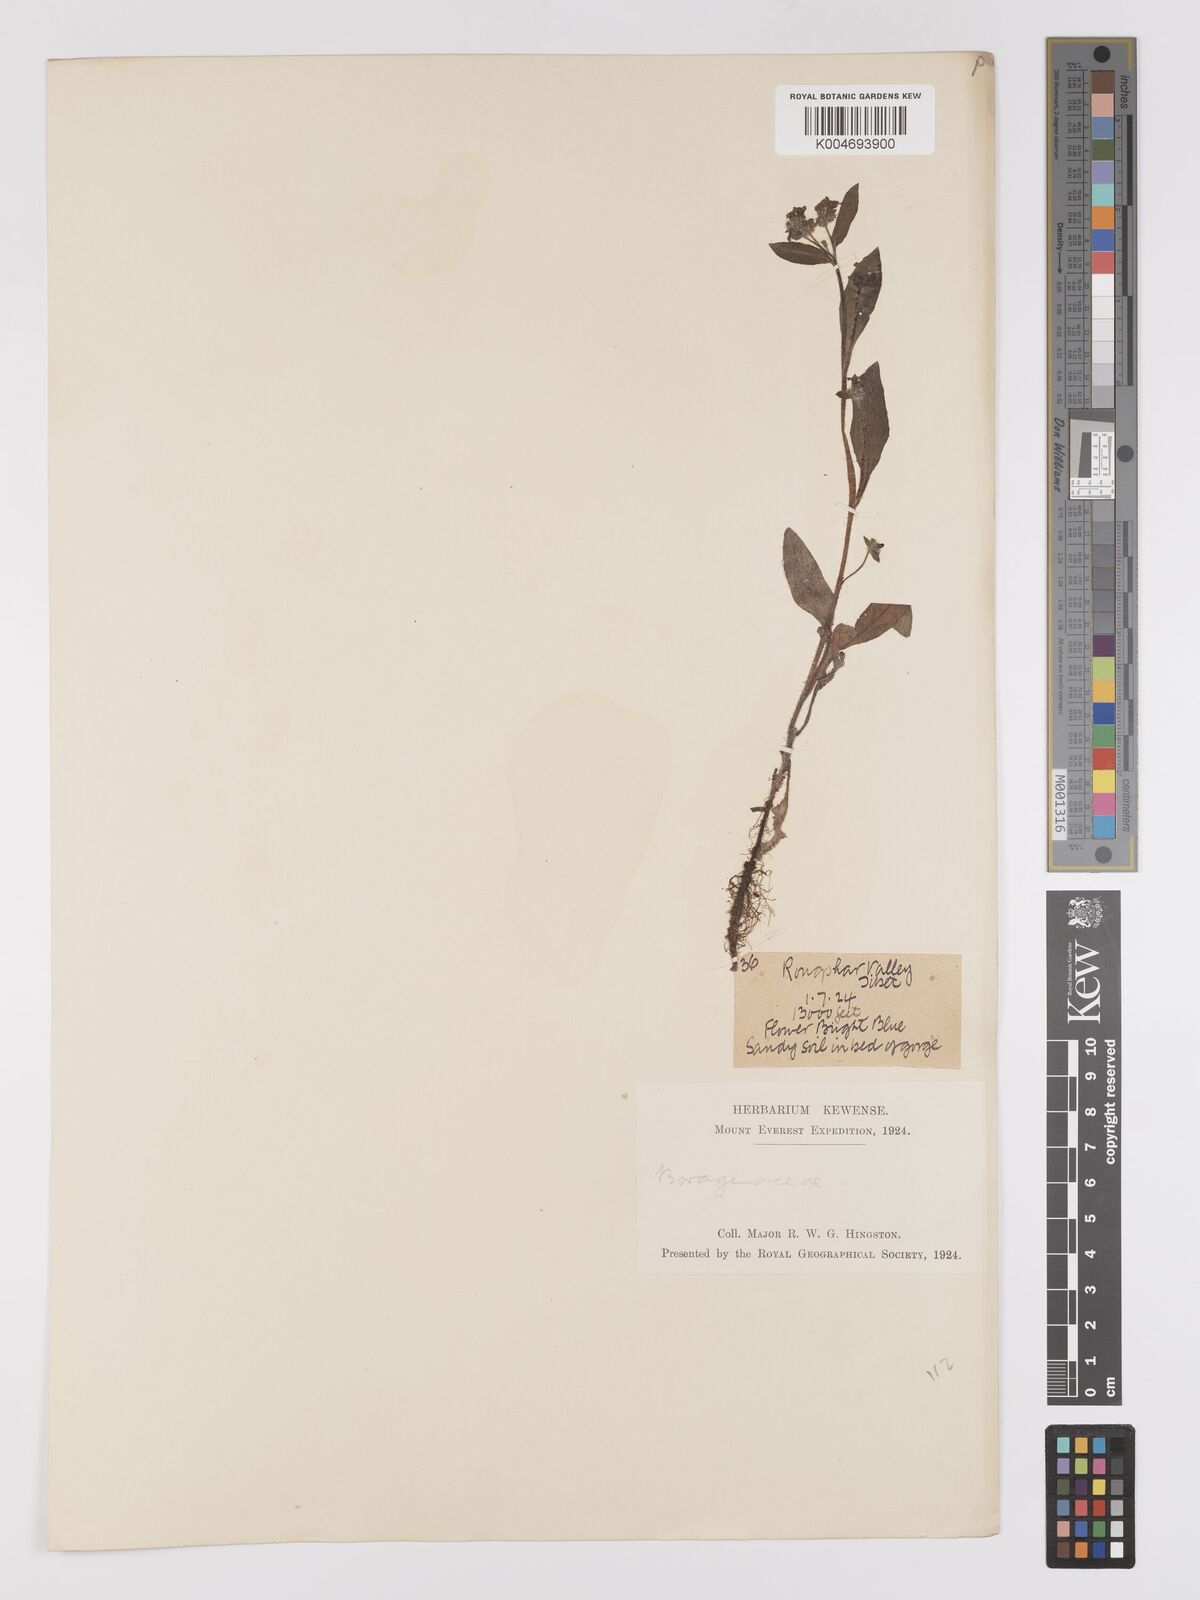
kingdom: Plantae
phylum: Tracheophyta
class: Magnoliopsida
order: Boraginales
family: Boraginaceae
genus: Microula
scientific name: Microula sikkimensis
